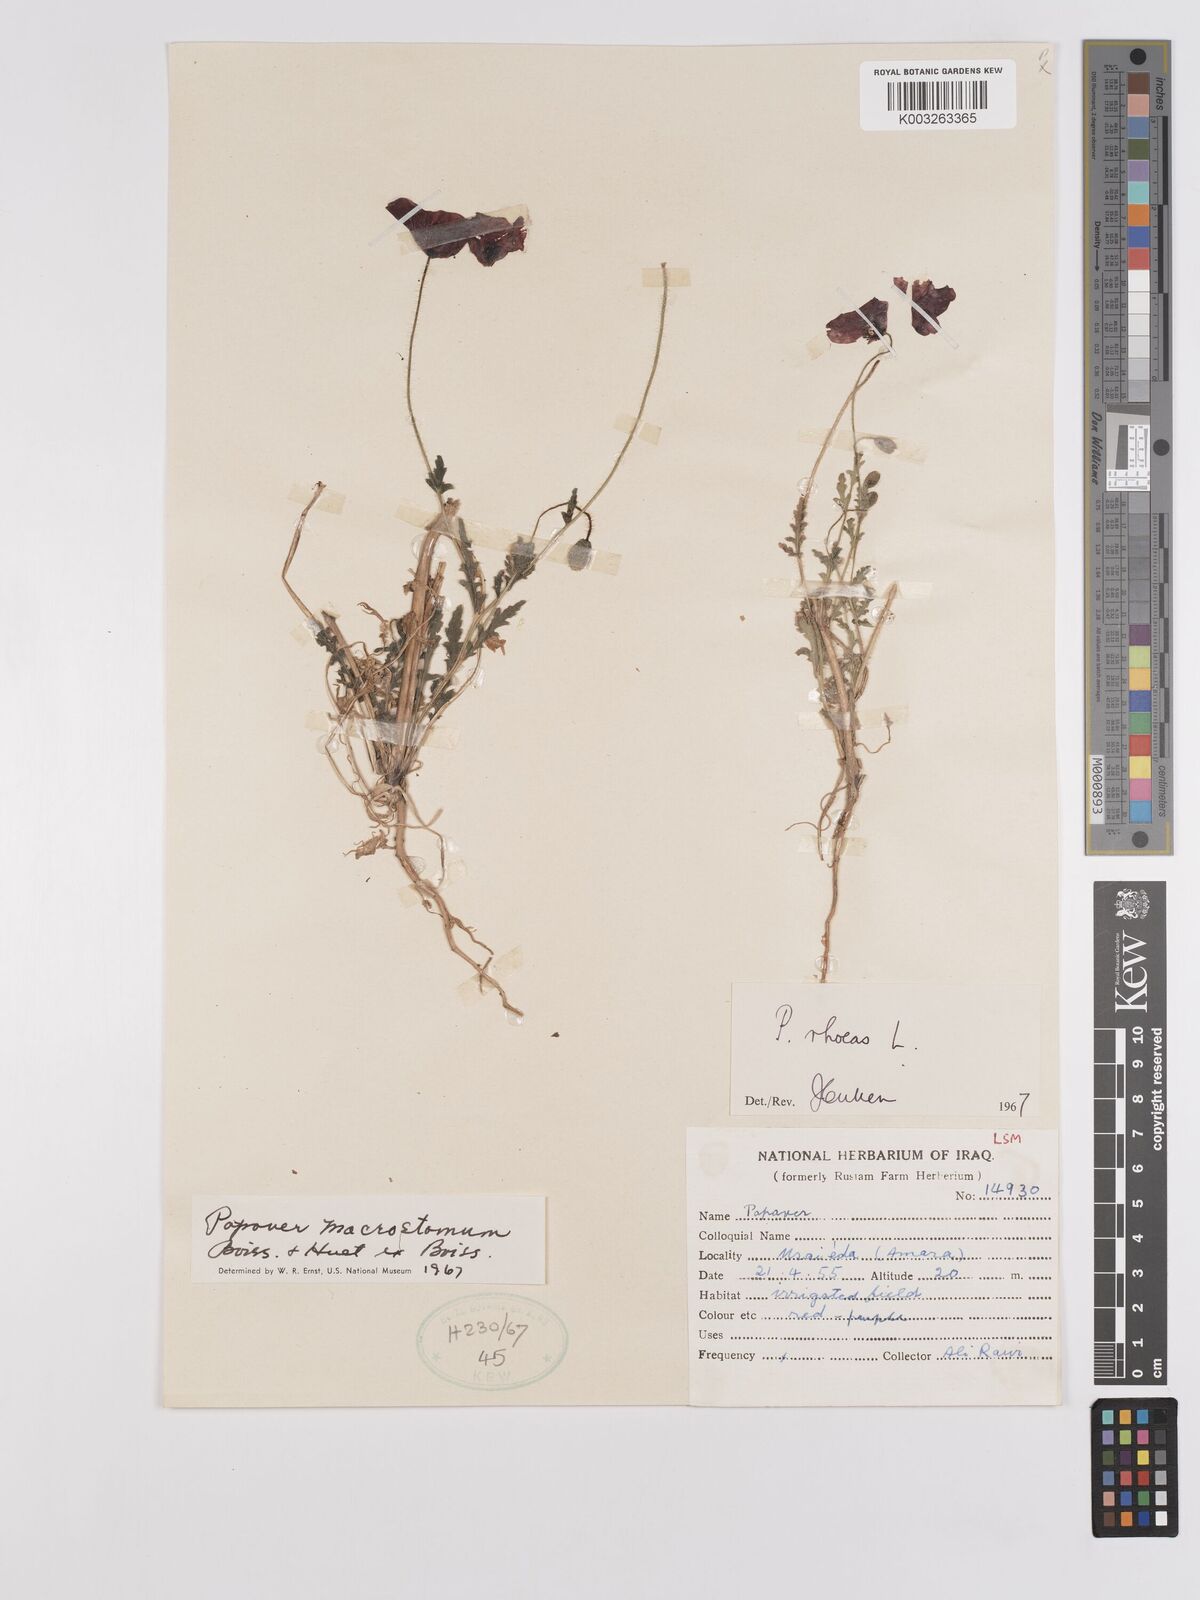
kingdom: Plantae
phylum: Tracheophyta
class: Magnoliopsida
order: Ranunculales
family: Papaveraceae
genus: Papaver
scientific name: Papaver rhoeas
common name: Corn poppy
